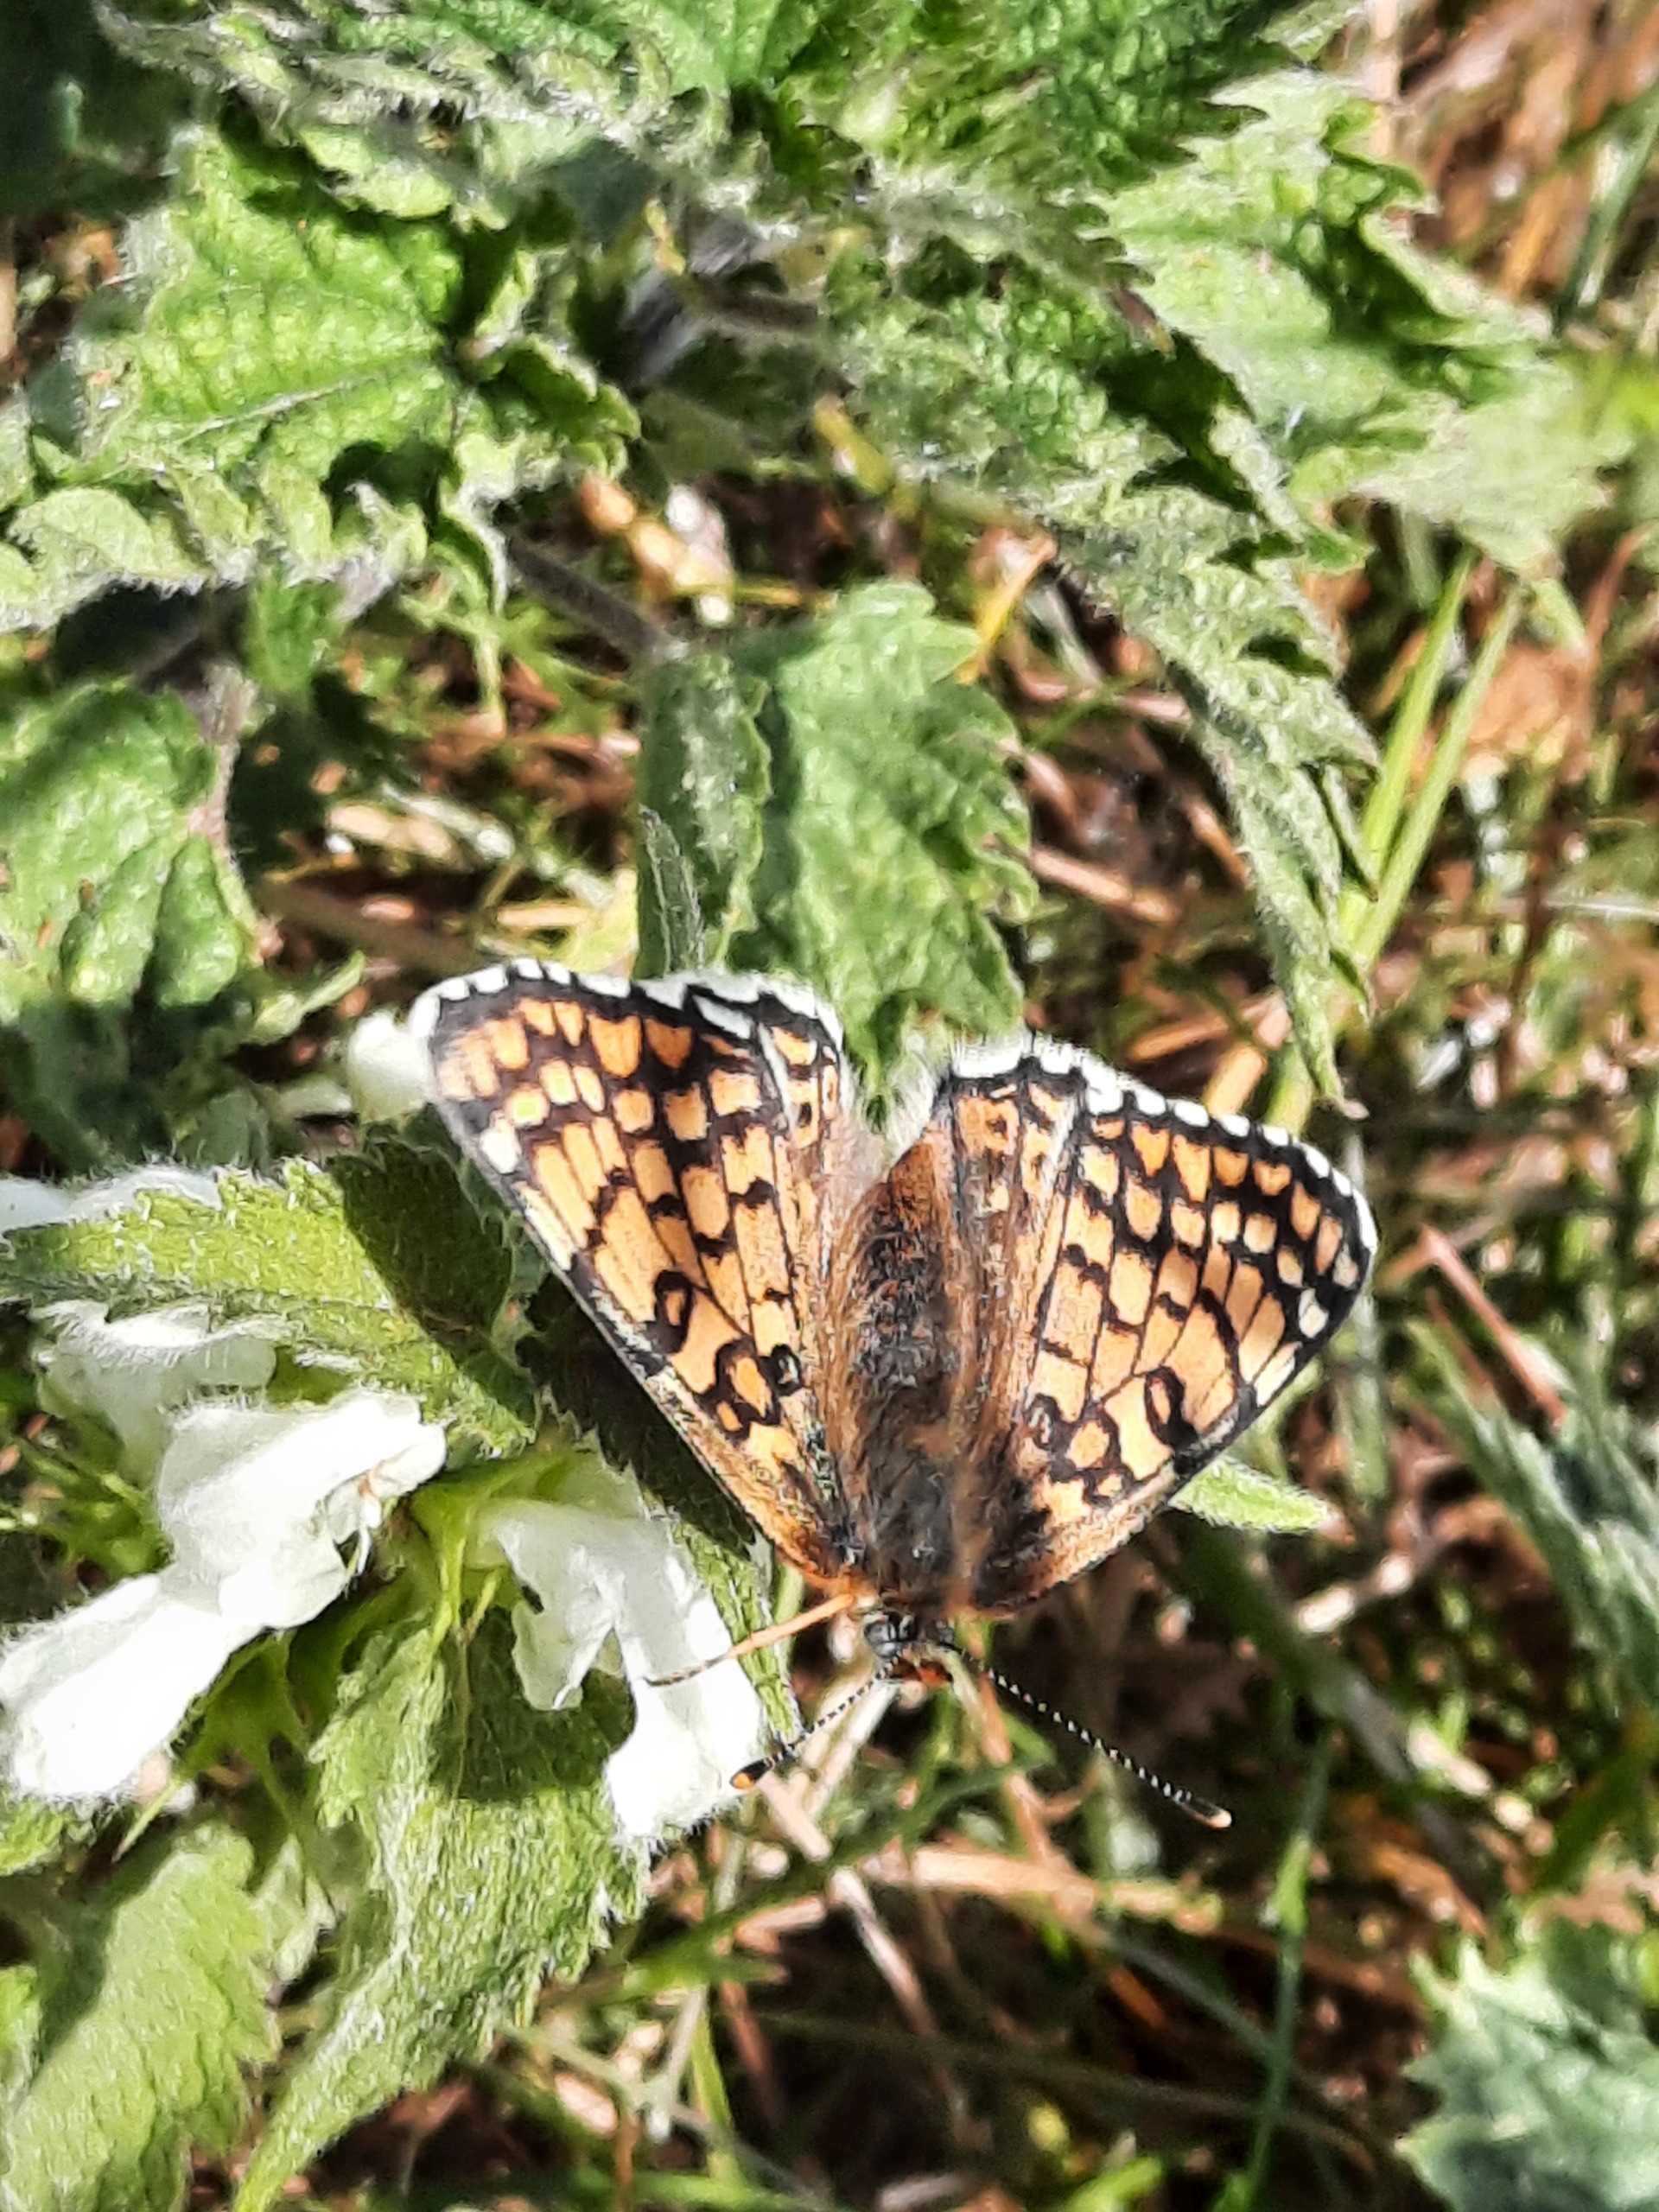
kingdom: Animalia
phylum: Arthropoda
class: Insecta
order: Lepidoptera
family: Nymphalidae
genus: Melitaea
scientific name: Melitaea cinxia
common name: Okkergul pletvinge
